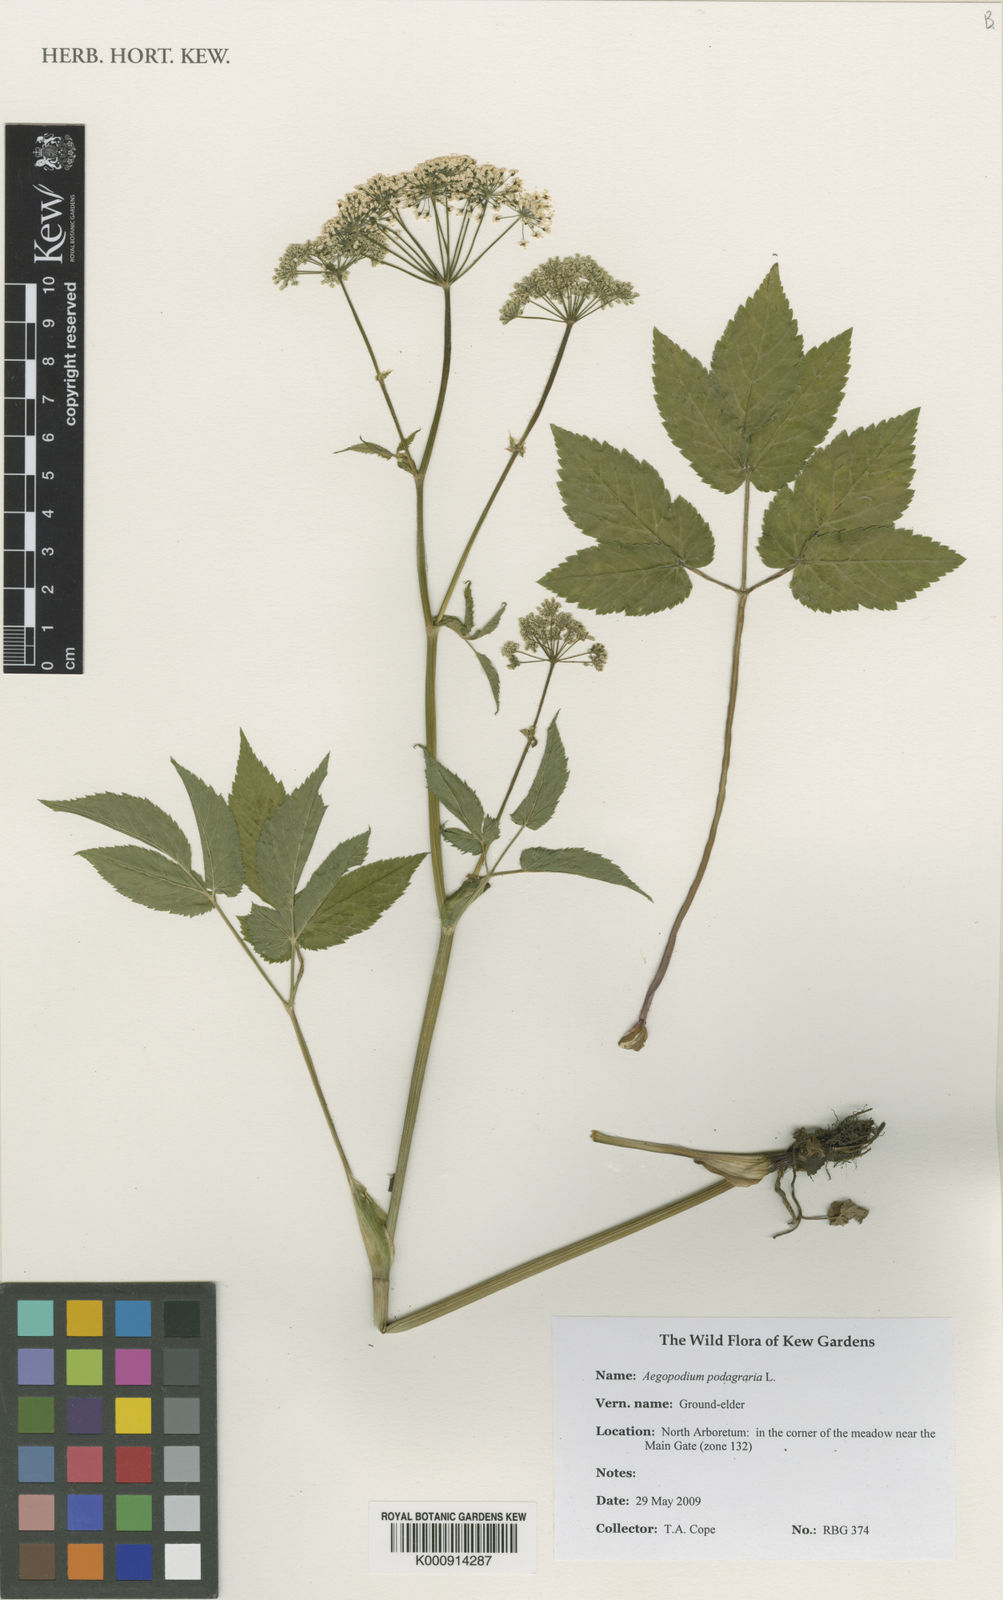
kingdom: Plantae
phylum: Tracheophyta
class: Magnoliopsida
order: Apiales
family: Apiaceae
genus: Aegopodium
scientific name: Aegopodium podagraria
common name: Ground-elder
